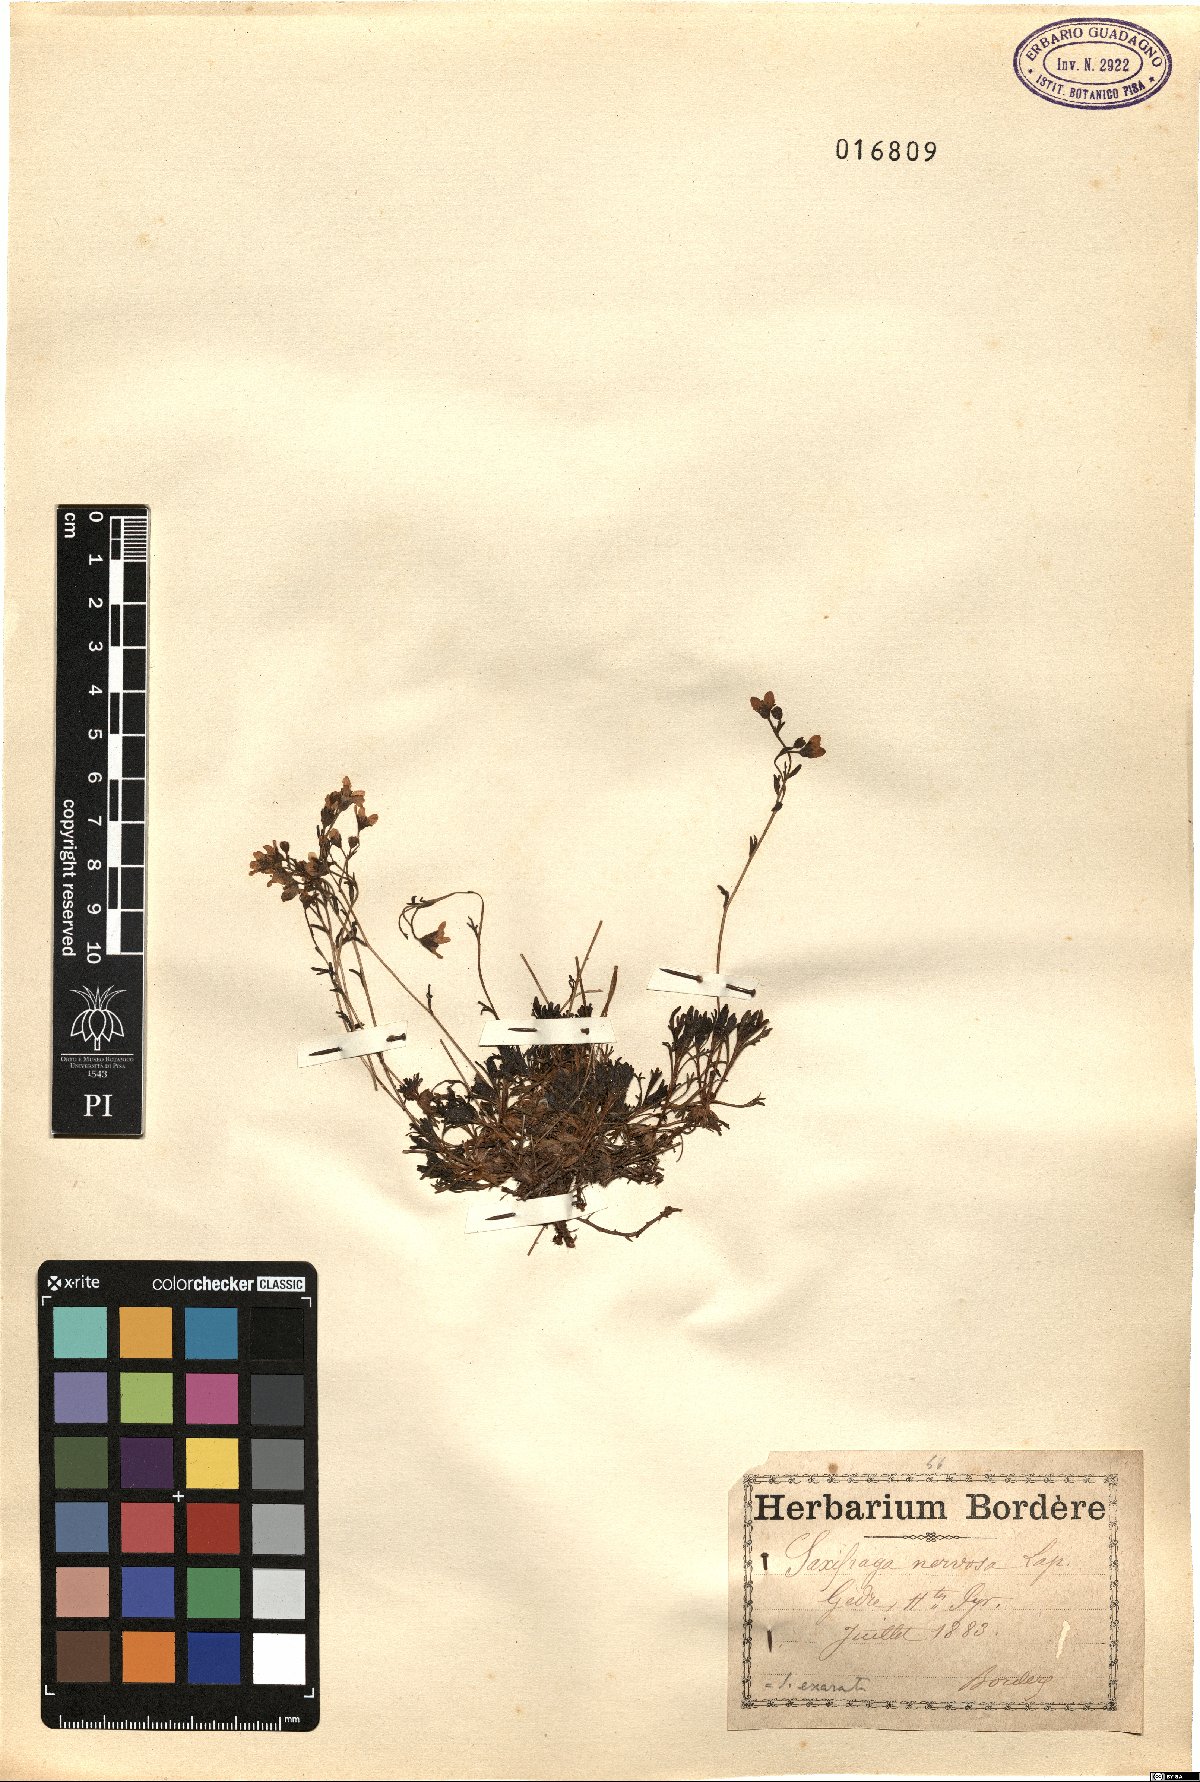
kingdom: Plantae
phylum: Tracheophyta
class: Magnoliopsida
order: Saxifragales
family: Saxifragaceae
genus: Saxifraga
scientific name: Saxifraga intricata
